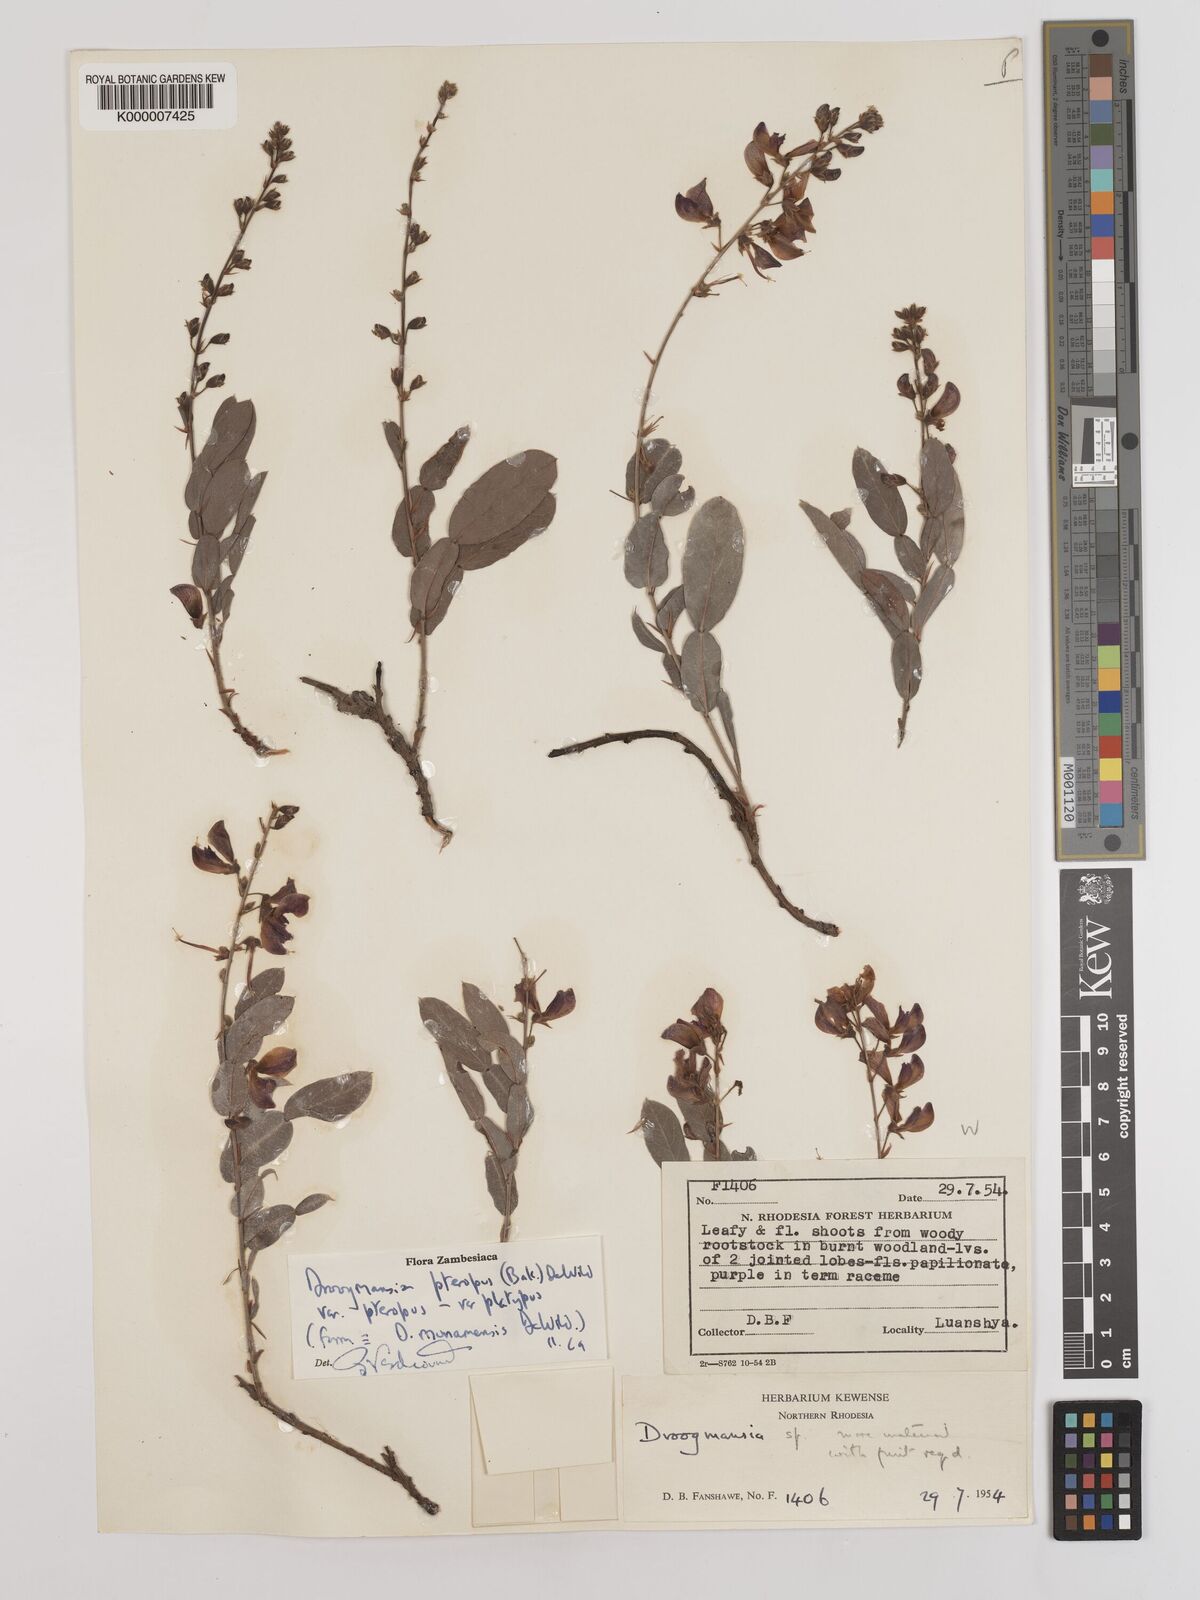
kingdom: Plantae
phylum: Tracheophyta
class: Magnoliopsida
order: Fabales
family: Fabaceae
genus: Droogmansia
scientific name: Droogmansia pteropus
